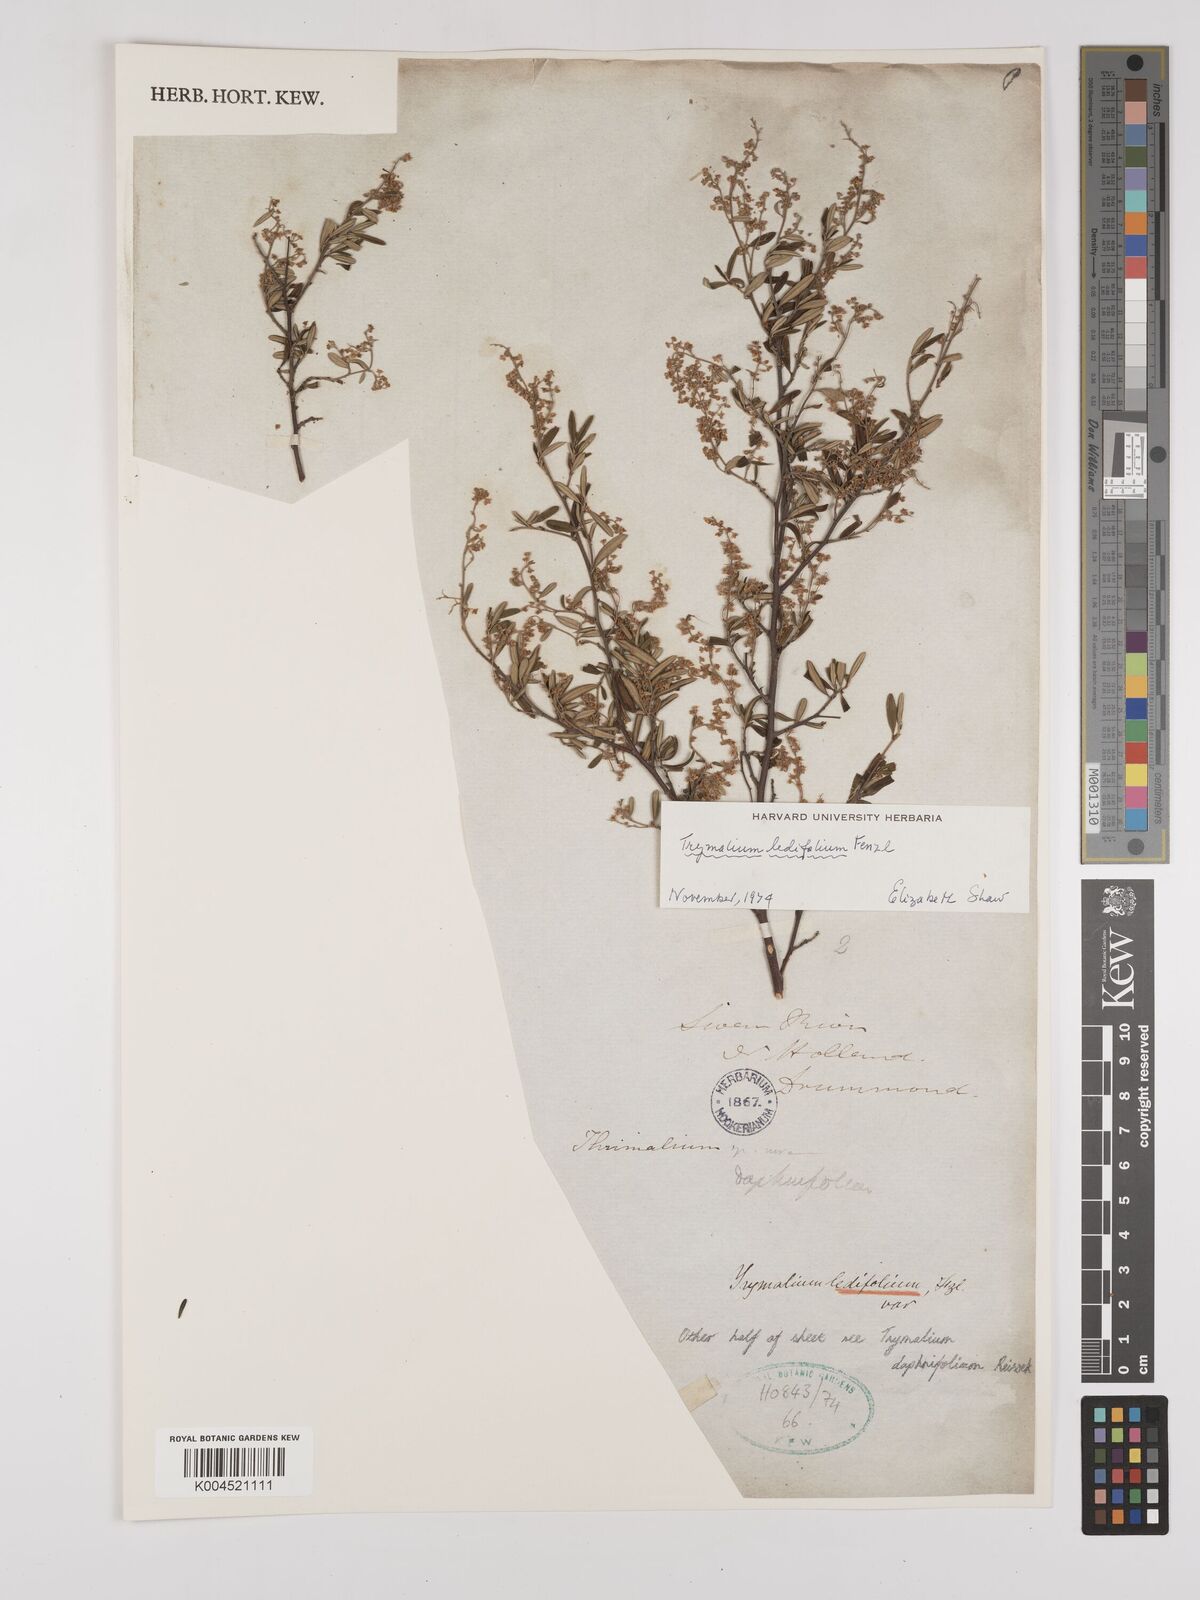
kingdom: Plantae
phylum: Tracheophyta
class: Magnoliopsida
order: Rosales
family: Rhamnaceae
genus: Trymalium
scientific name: Trymalium ledifolium
